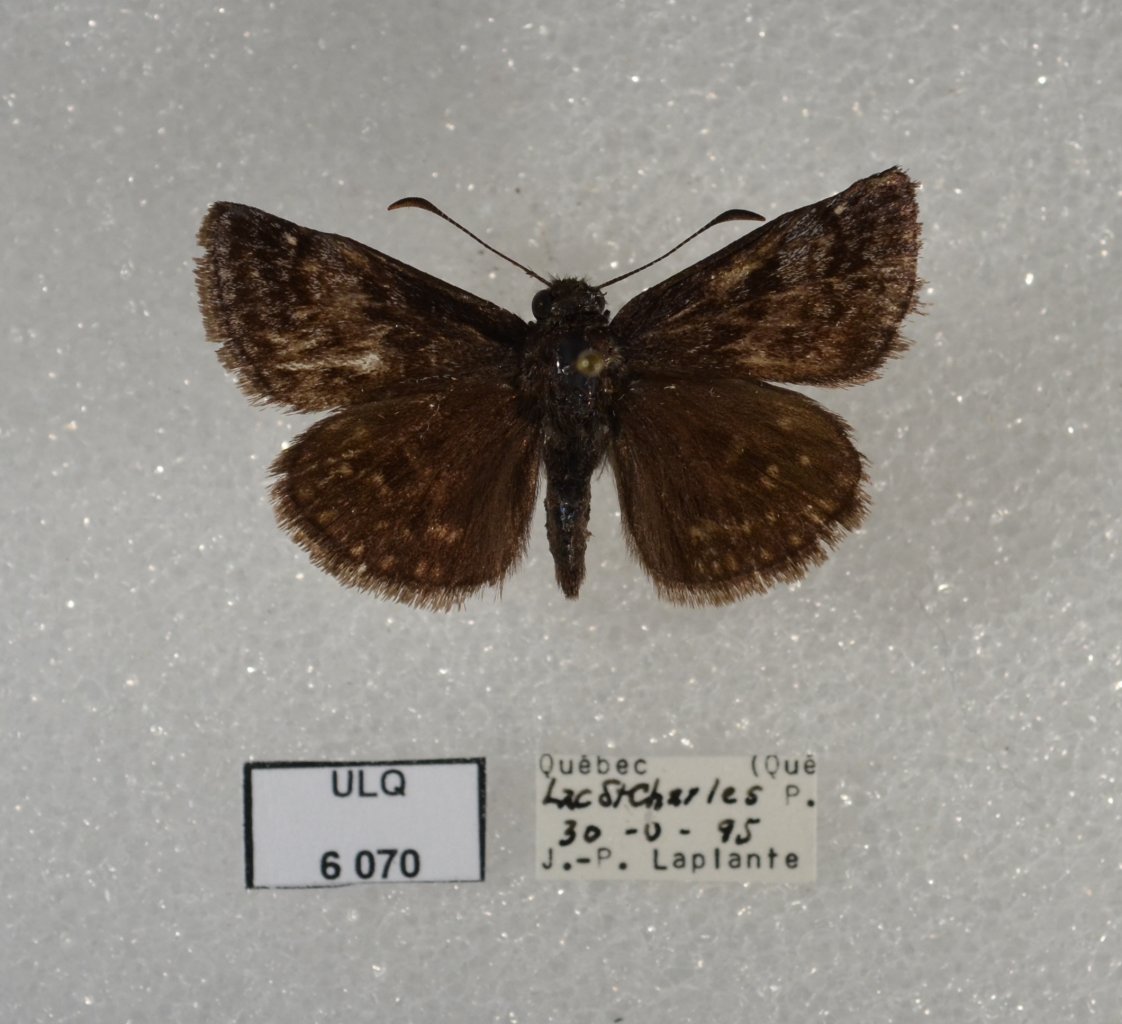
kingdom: Animalia
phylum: Arthropoda
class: Insecta
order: Lepidoptera
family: Hesperiidae
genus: Erynnis
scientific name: Erynnis icelus
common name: Dreamy Duskywing
